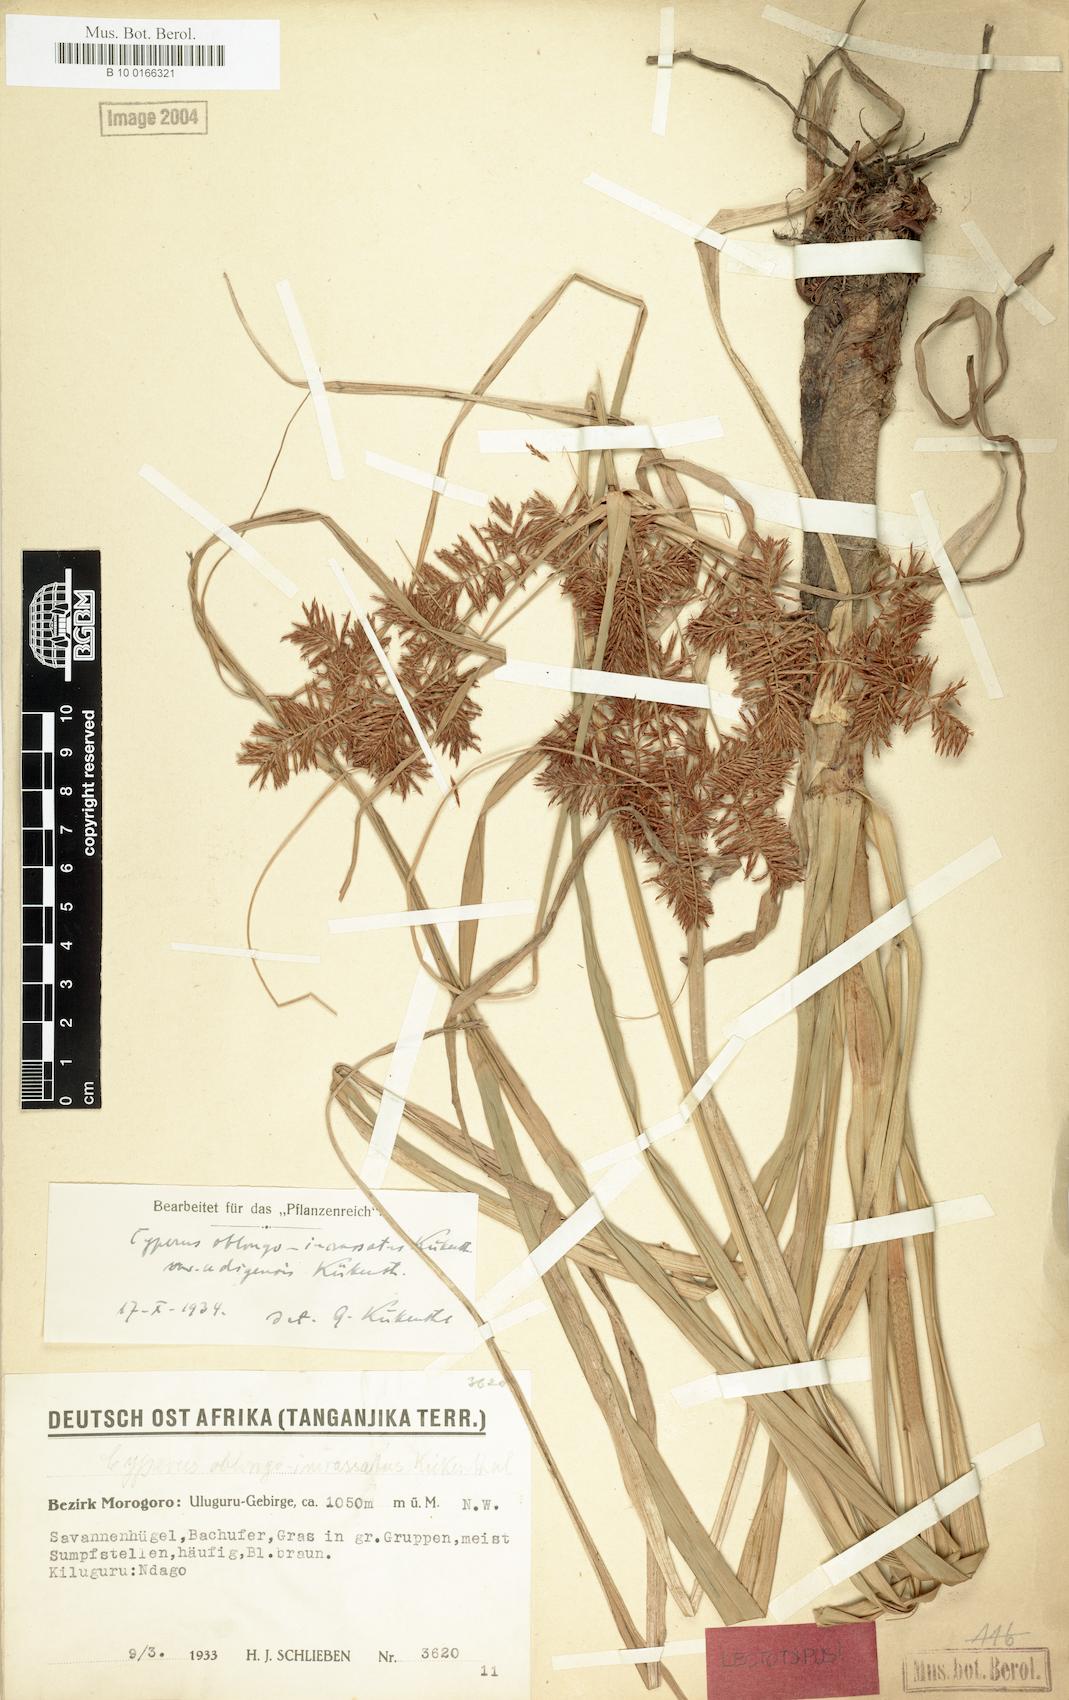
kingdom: Plantae
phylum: Tracheophyta
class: Liliopsida
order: Poales
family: Cyperaceae
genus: Cyperus
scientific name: Cyperus oblongoincrassatus
